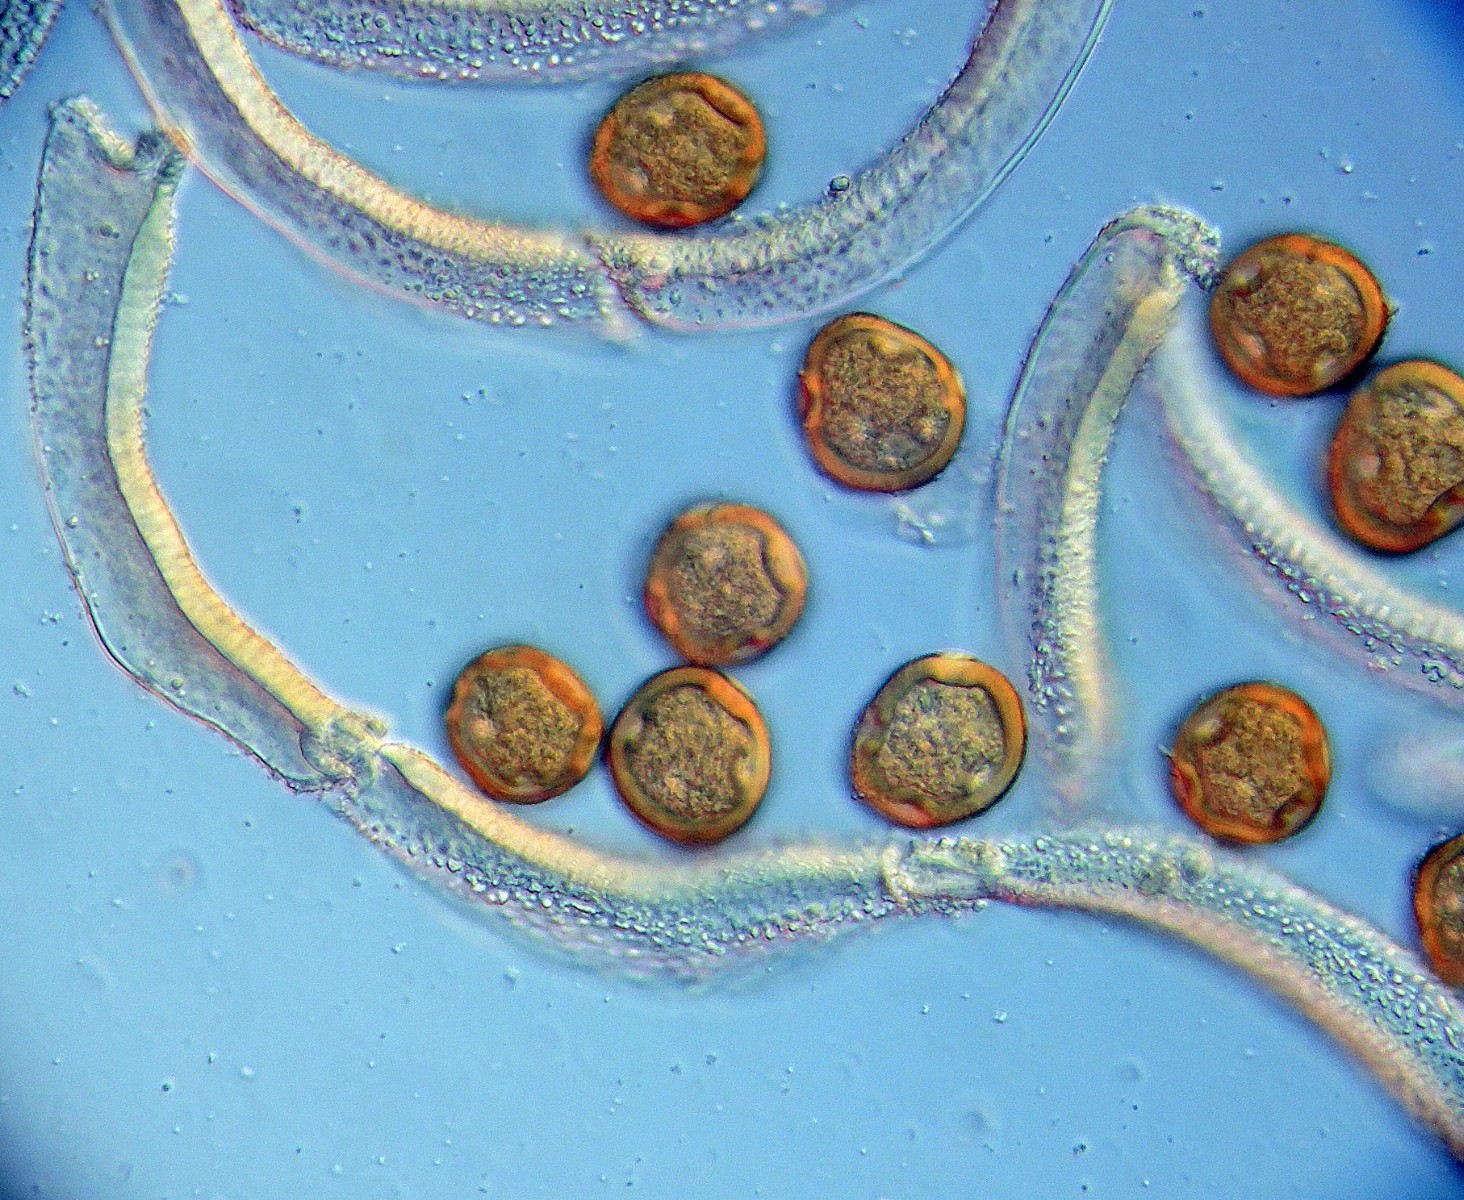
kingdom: Fungi
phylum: Basidiomycota
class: Pucciniomycetes
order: Pucciniales
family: Gymnosporangiaceae
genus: Gymnosporangium
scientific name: Gymnosporangium clavariiforme
